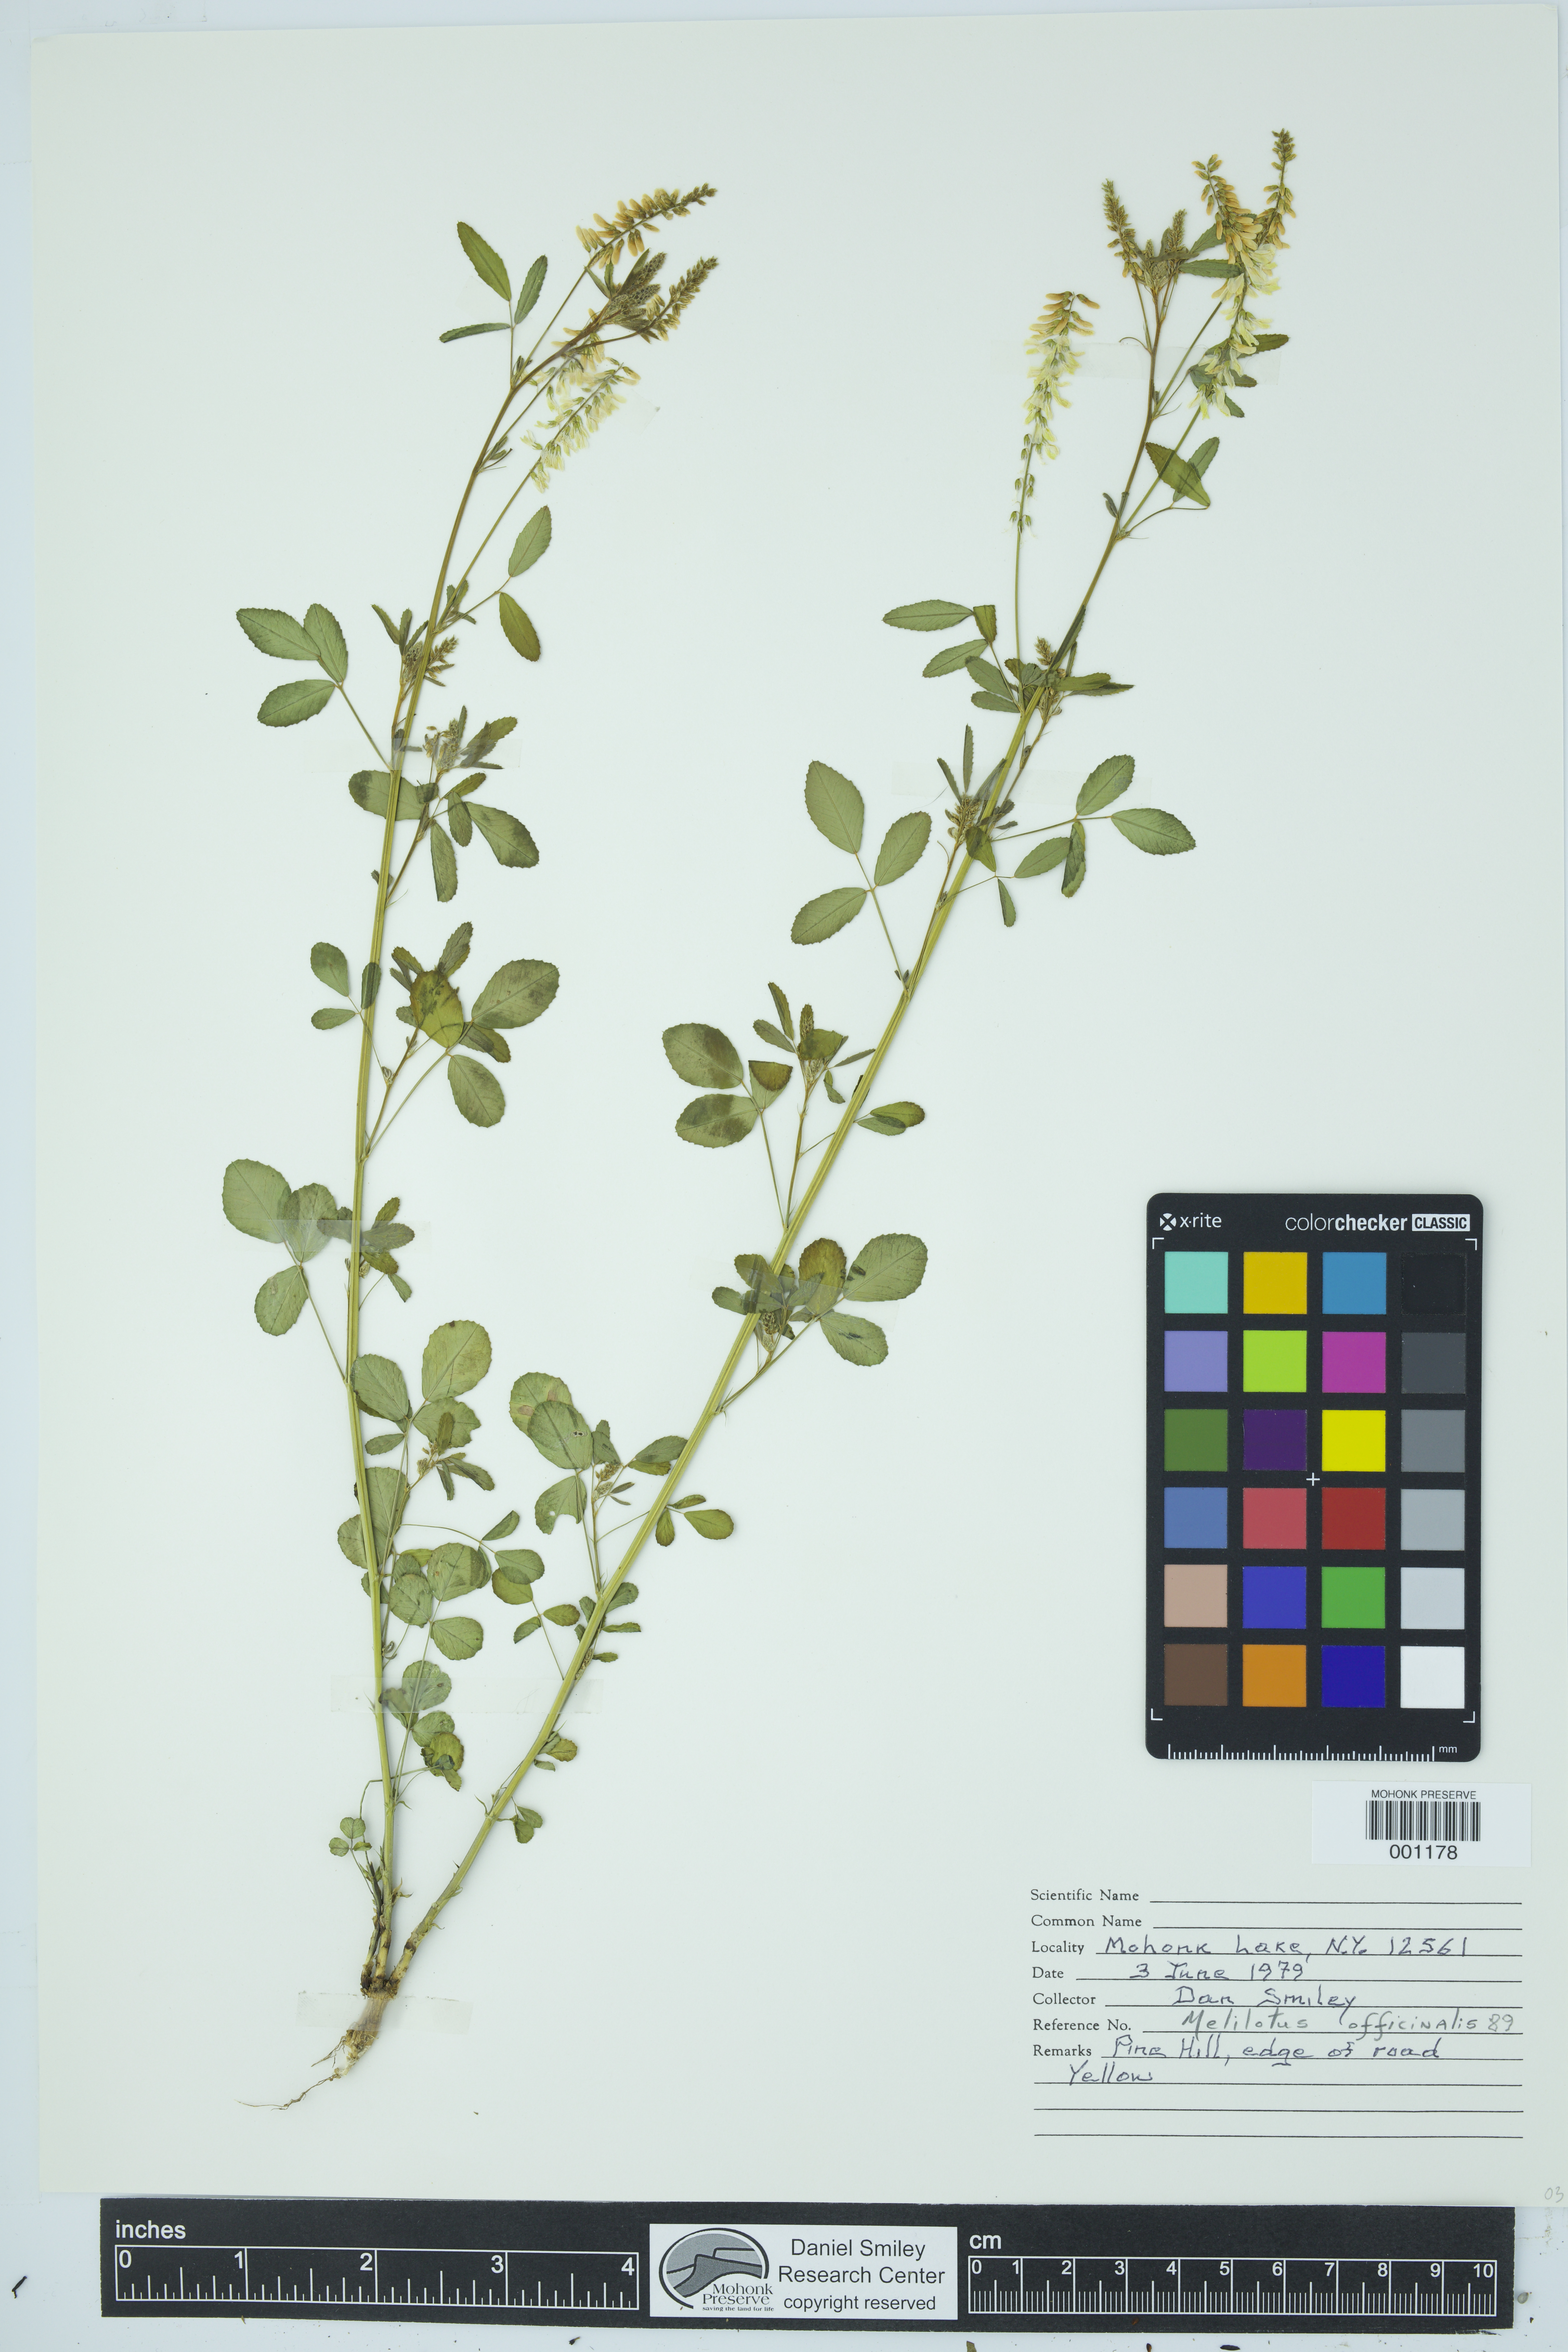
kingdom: Plantae
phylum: Tracheophyta
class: Magnoliopsida
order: Fabales
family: Fabaceae
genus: Melilotus
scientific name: Melilotus officinalis
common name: Sweetclover
